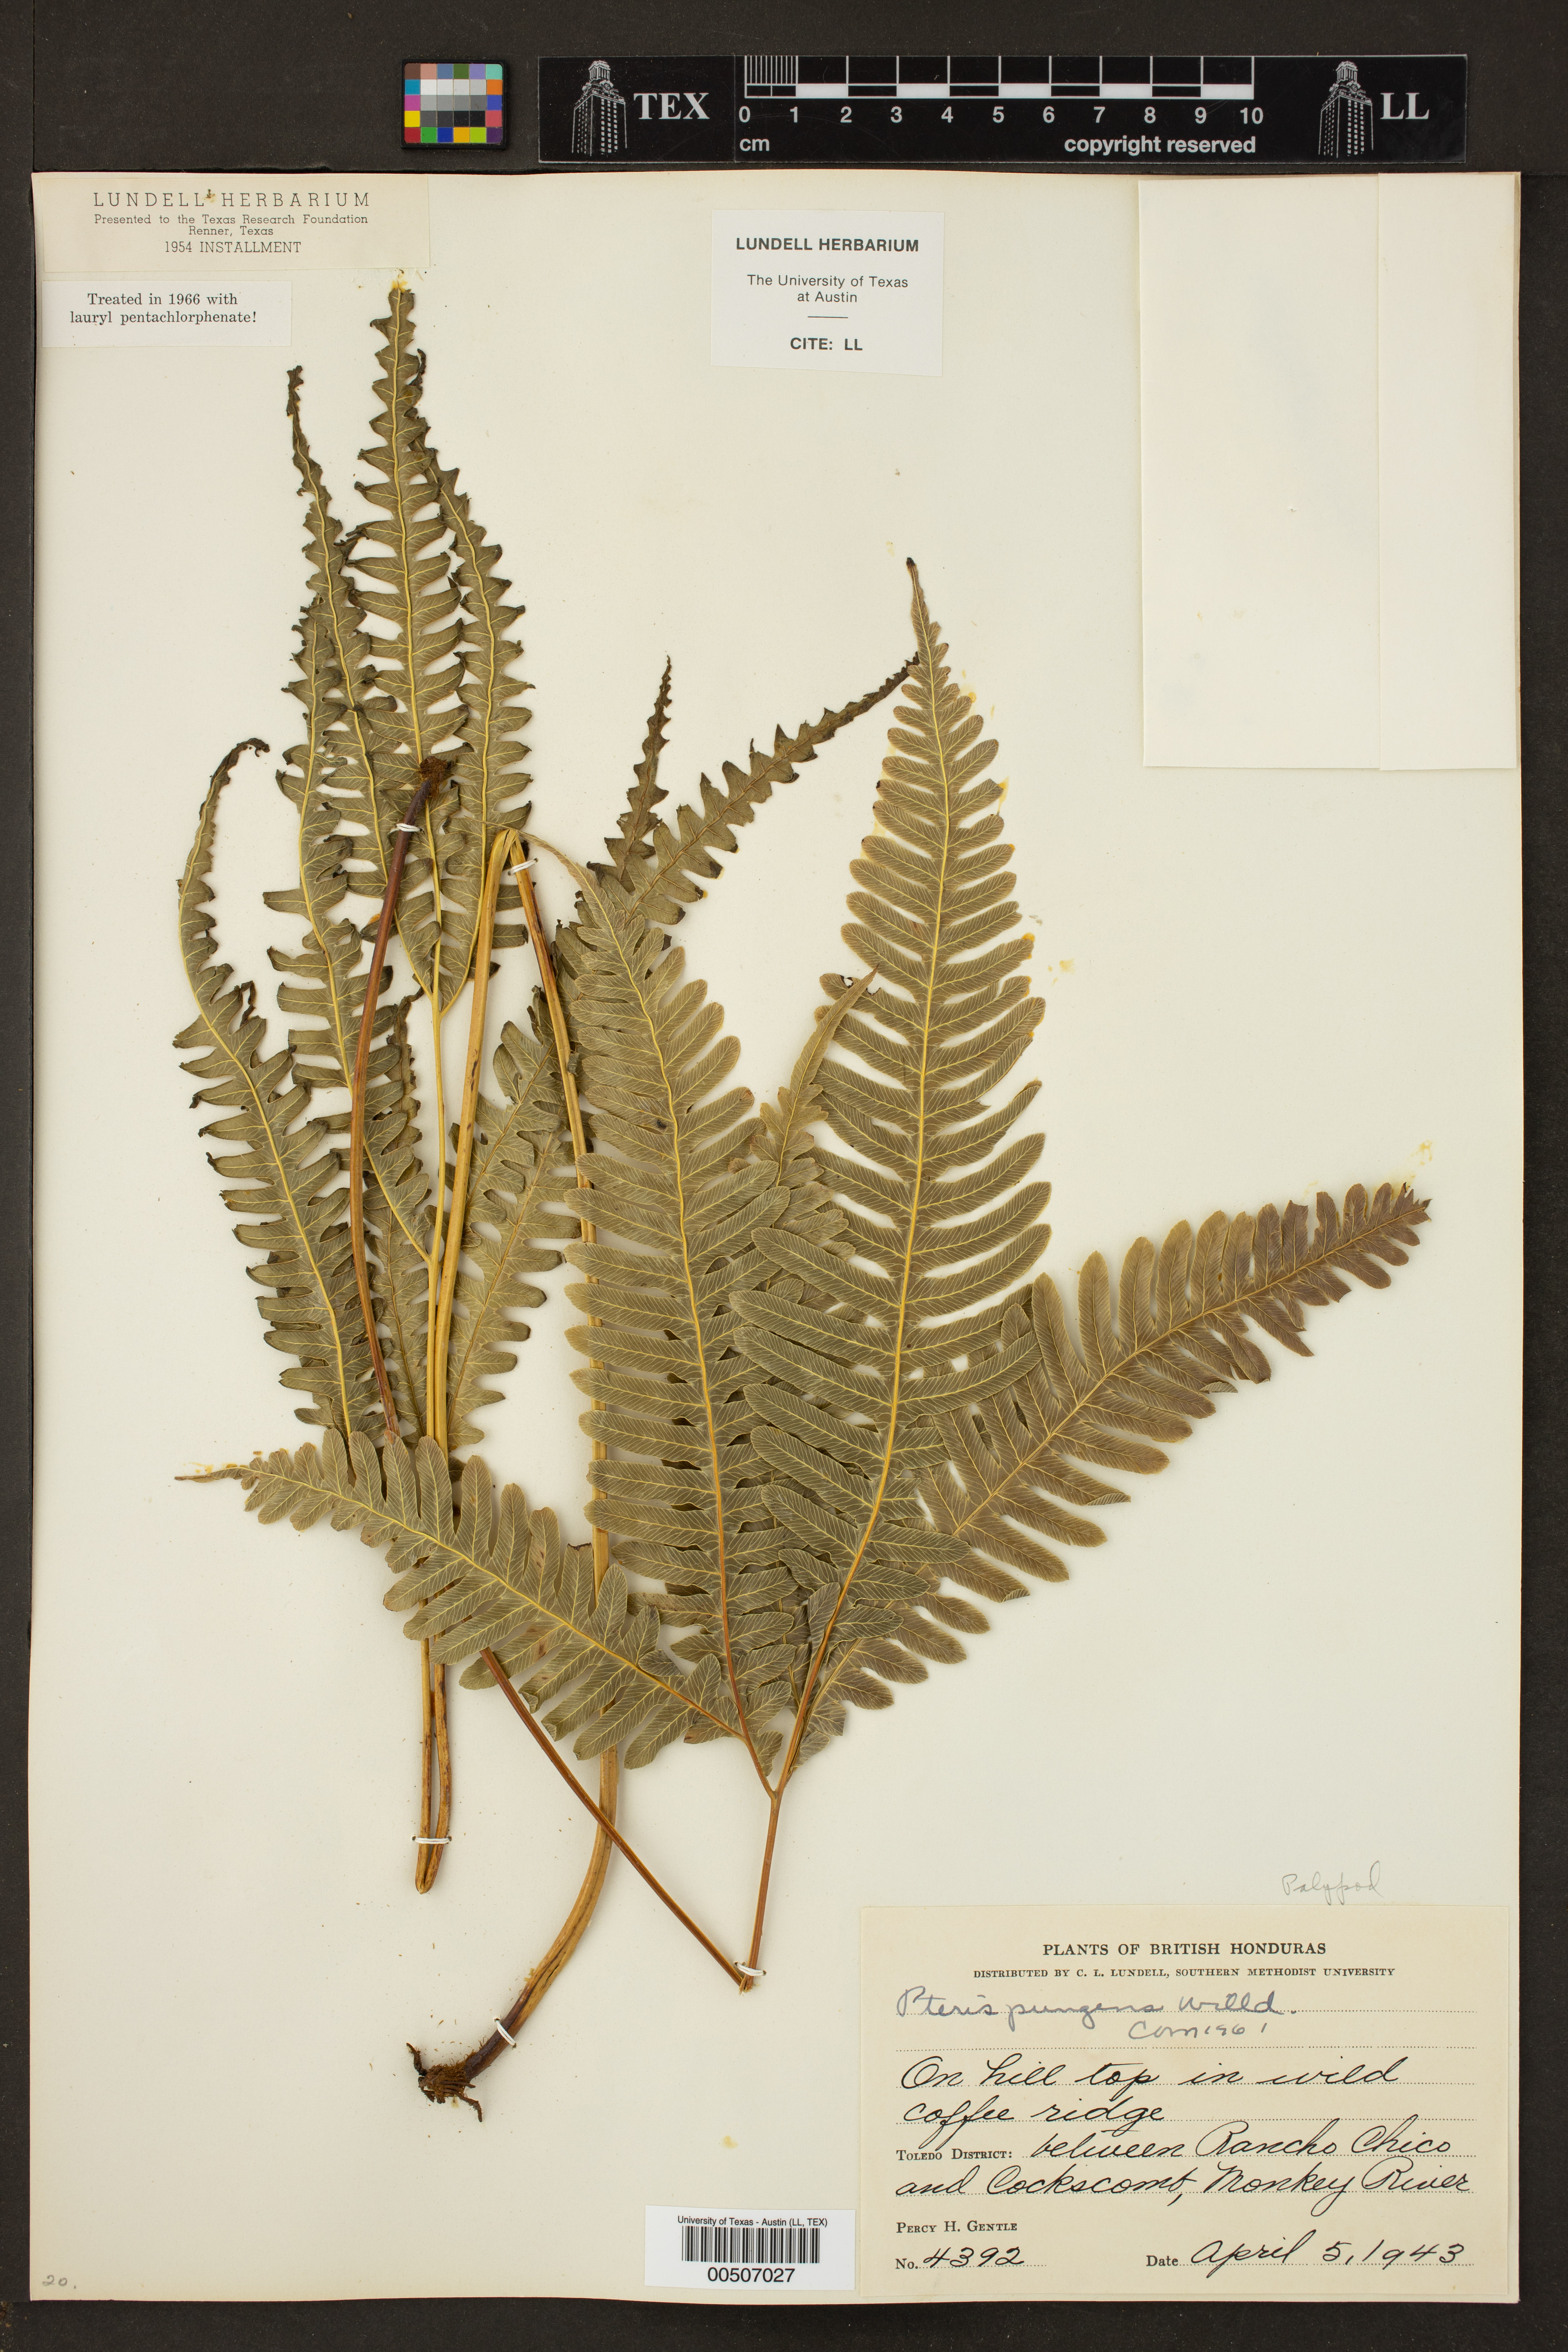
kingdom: Plantae
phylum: Tracheophyta
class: Polypodiopsida
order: Polypodiales
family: Pteridaceae
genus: Pteris
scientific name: Pteris pungens
